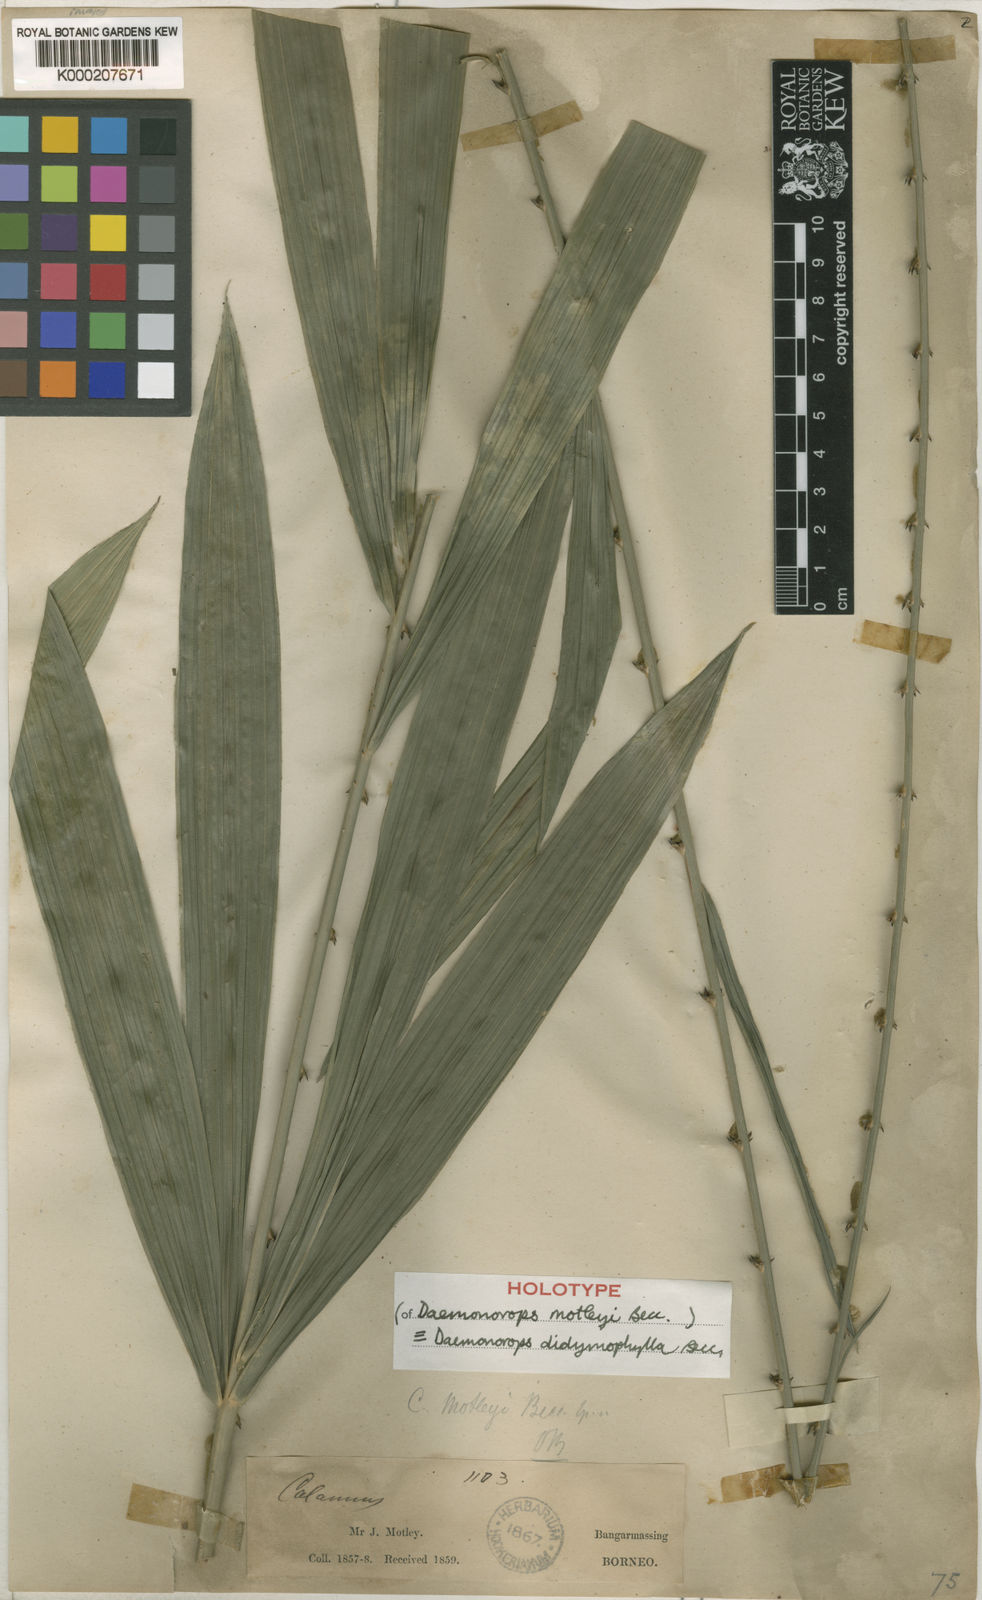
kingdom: Plantae
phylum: Tracheophyta
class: Liliopsida
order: Arecales
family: Arecaceae
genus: Calamus
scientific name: Calamus gracilipes
